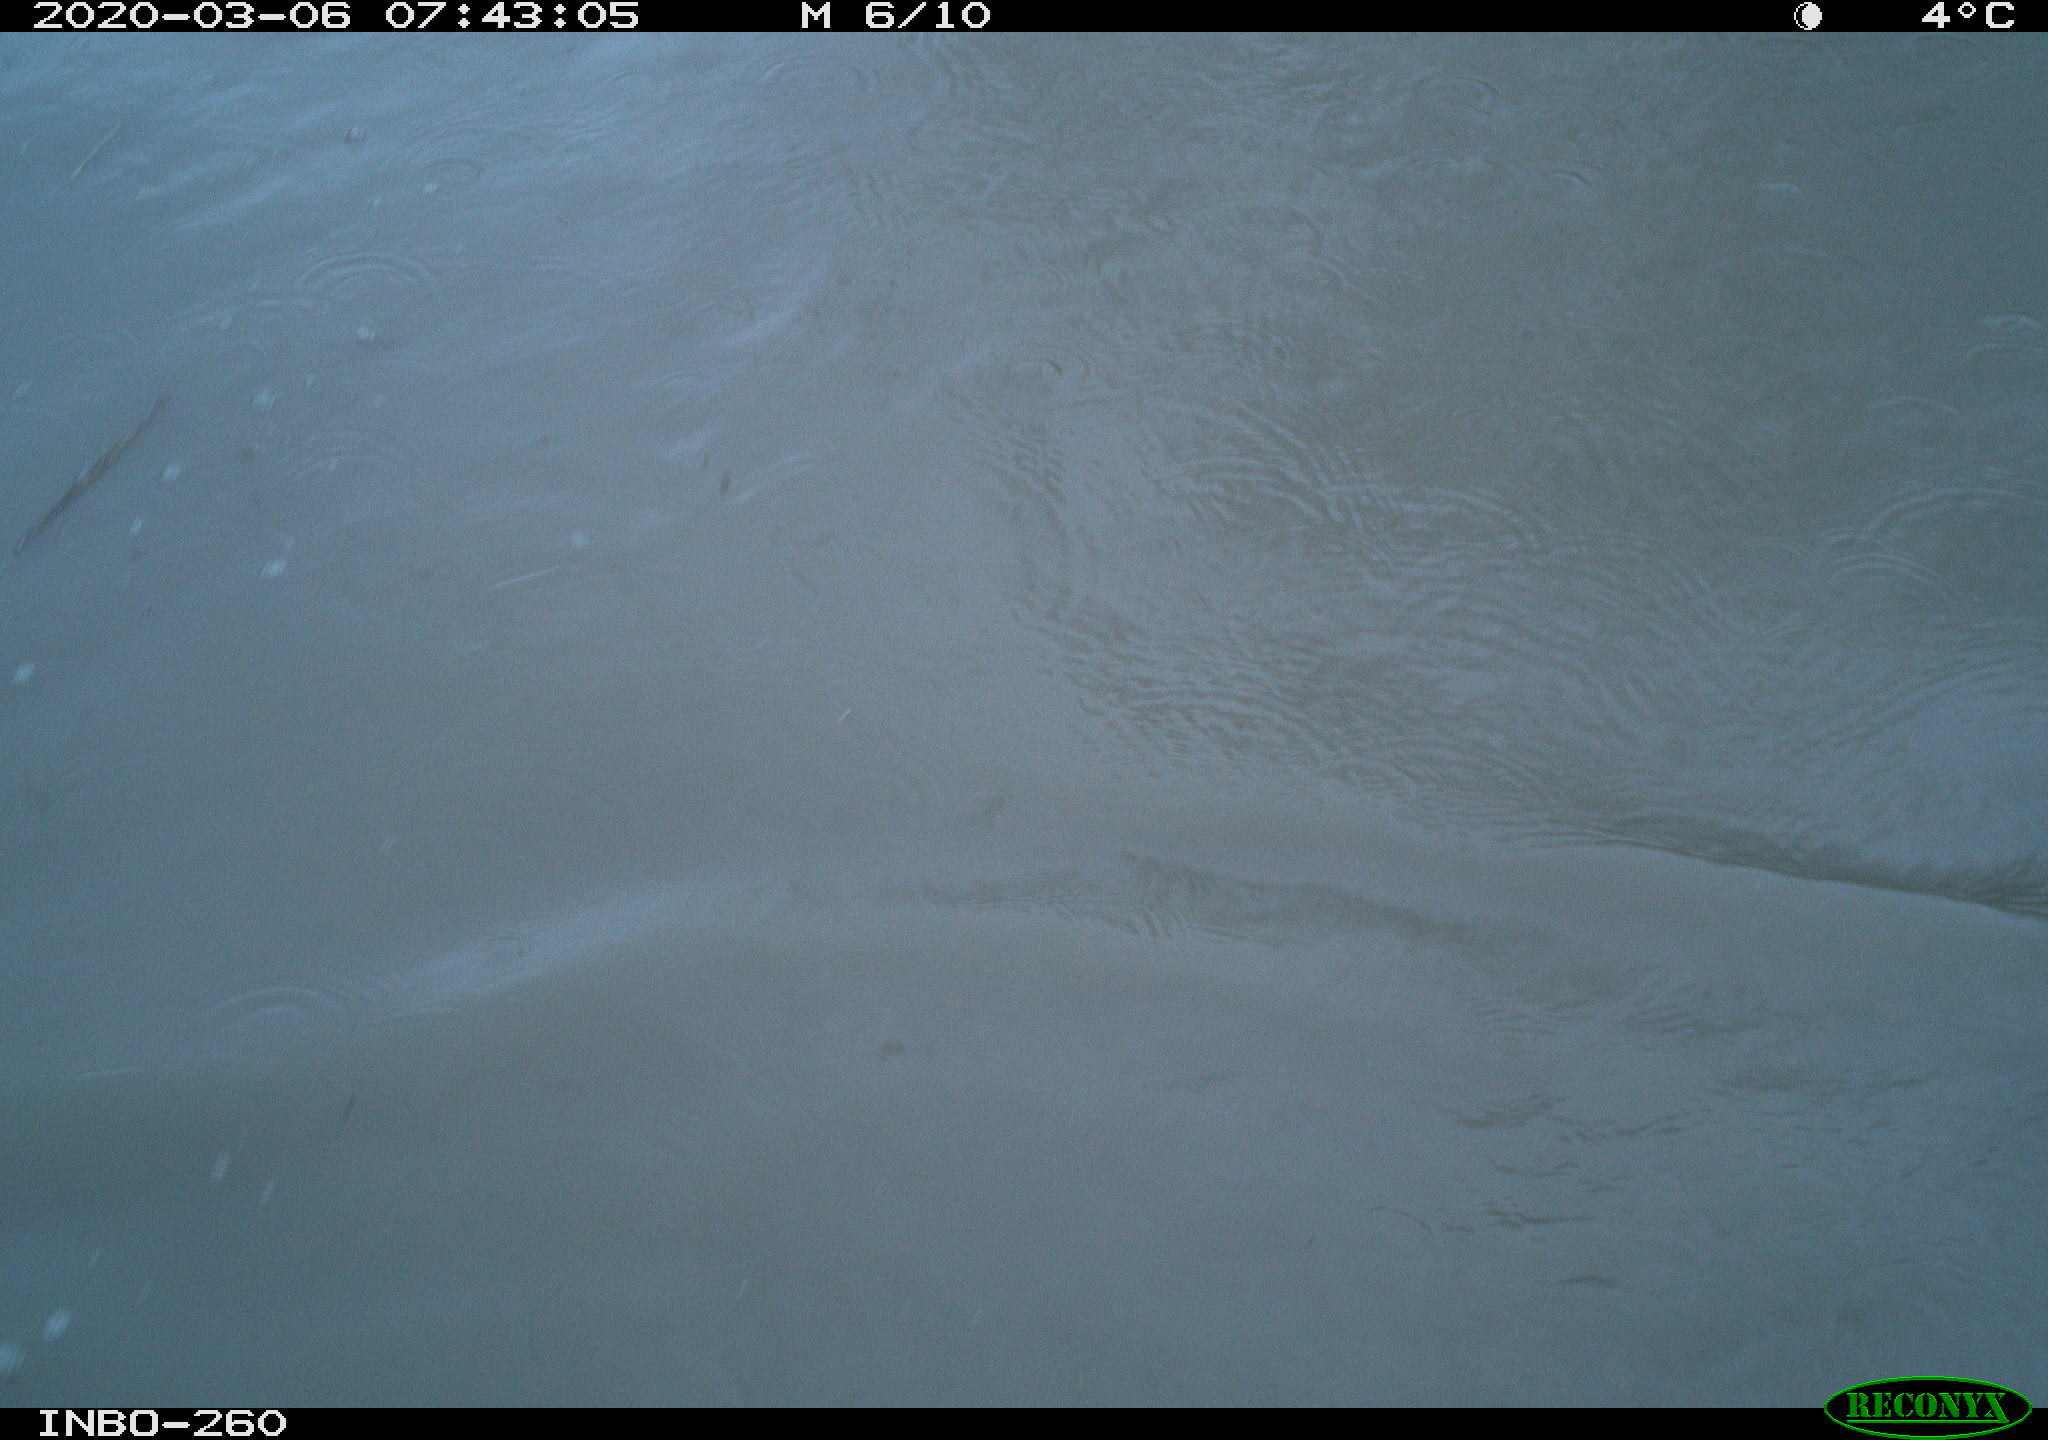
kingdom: Animalia
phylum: Chordata
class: Aves
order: Anseriformes
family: Anatidae
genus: Anas
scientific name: Anas platyrhynchos
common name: Mallard
